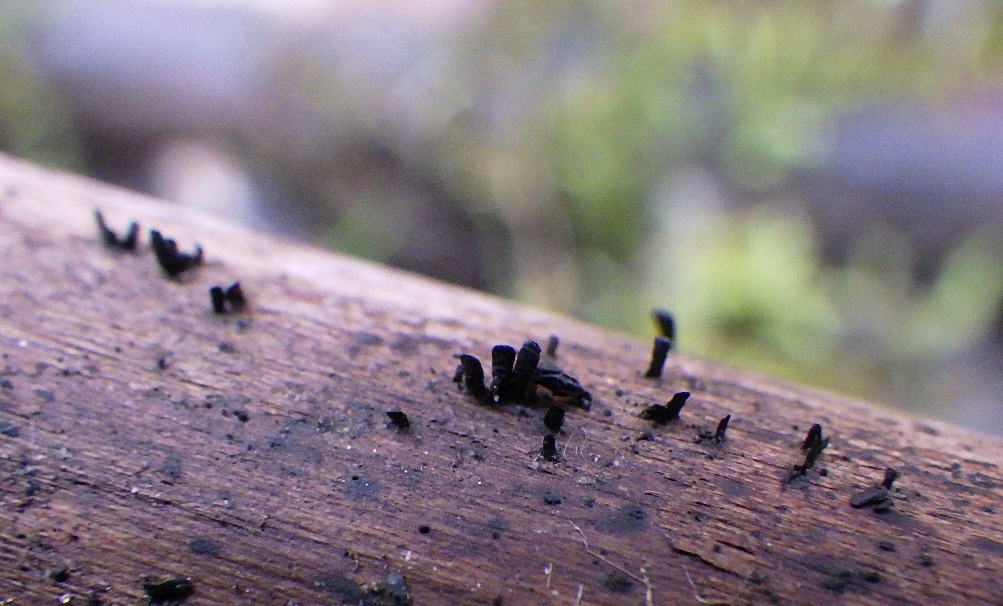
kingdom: Fungi
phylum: Ascomycota
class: Eurotiomycetes
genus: Glyphium
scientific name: Glyphium elatum
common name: kuløkse
